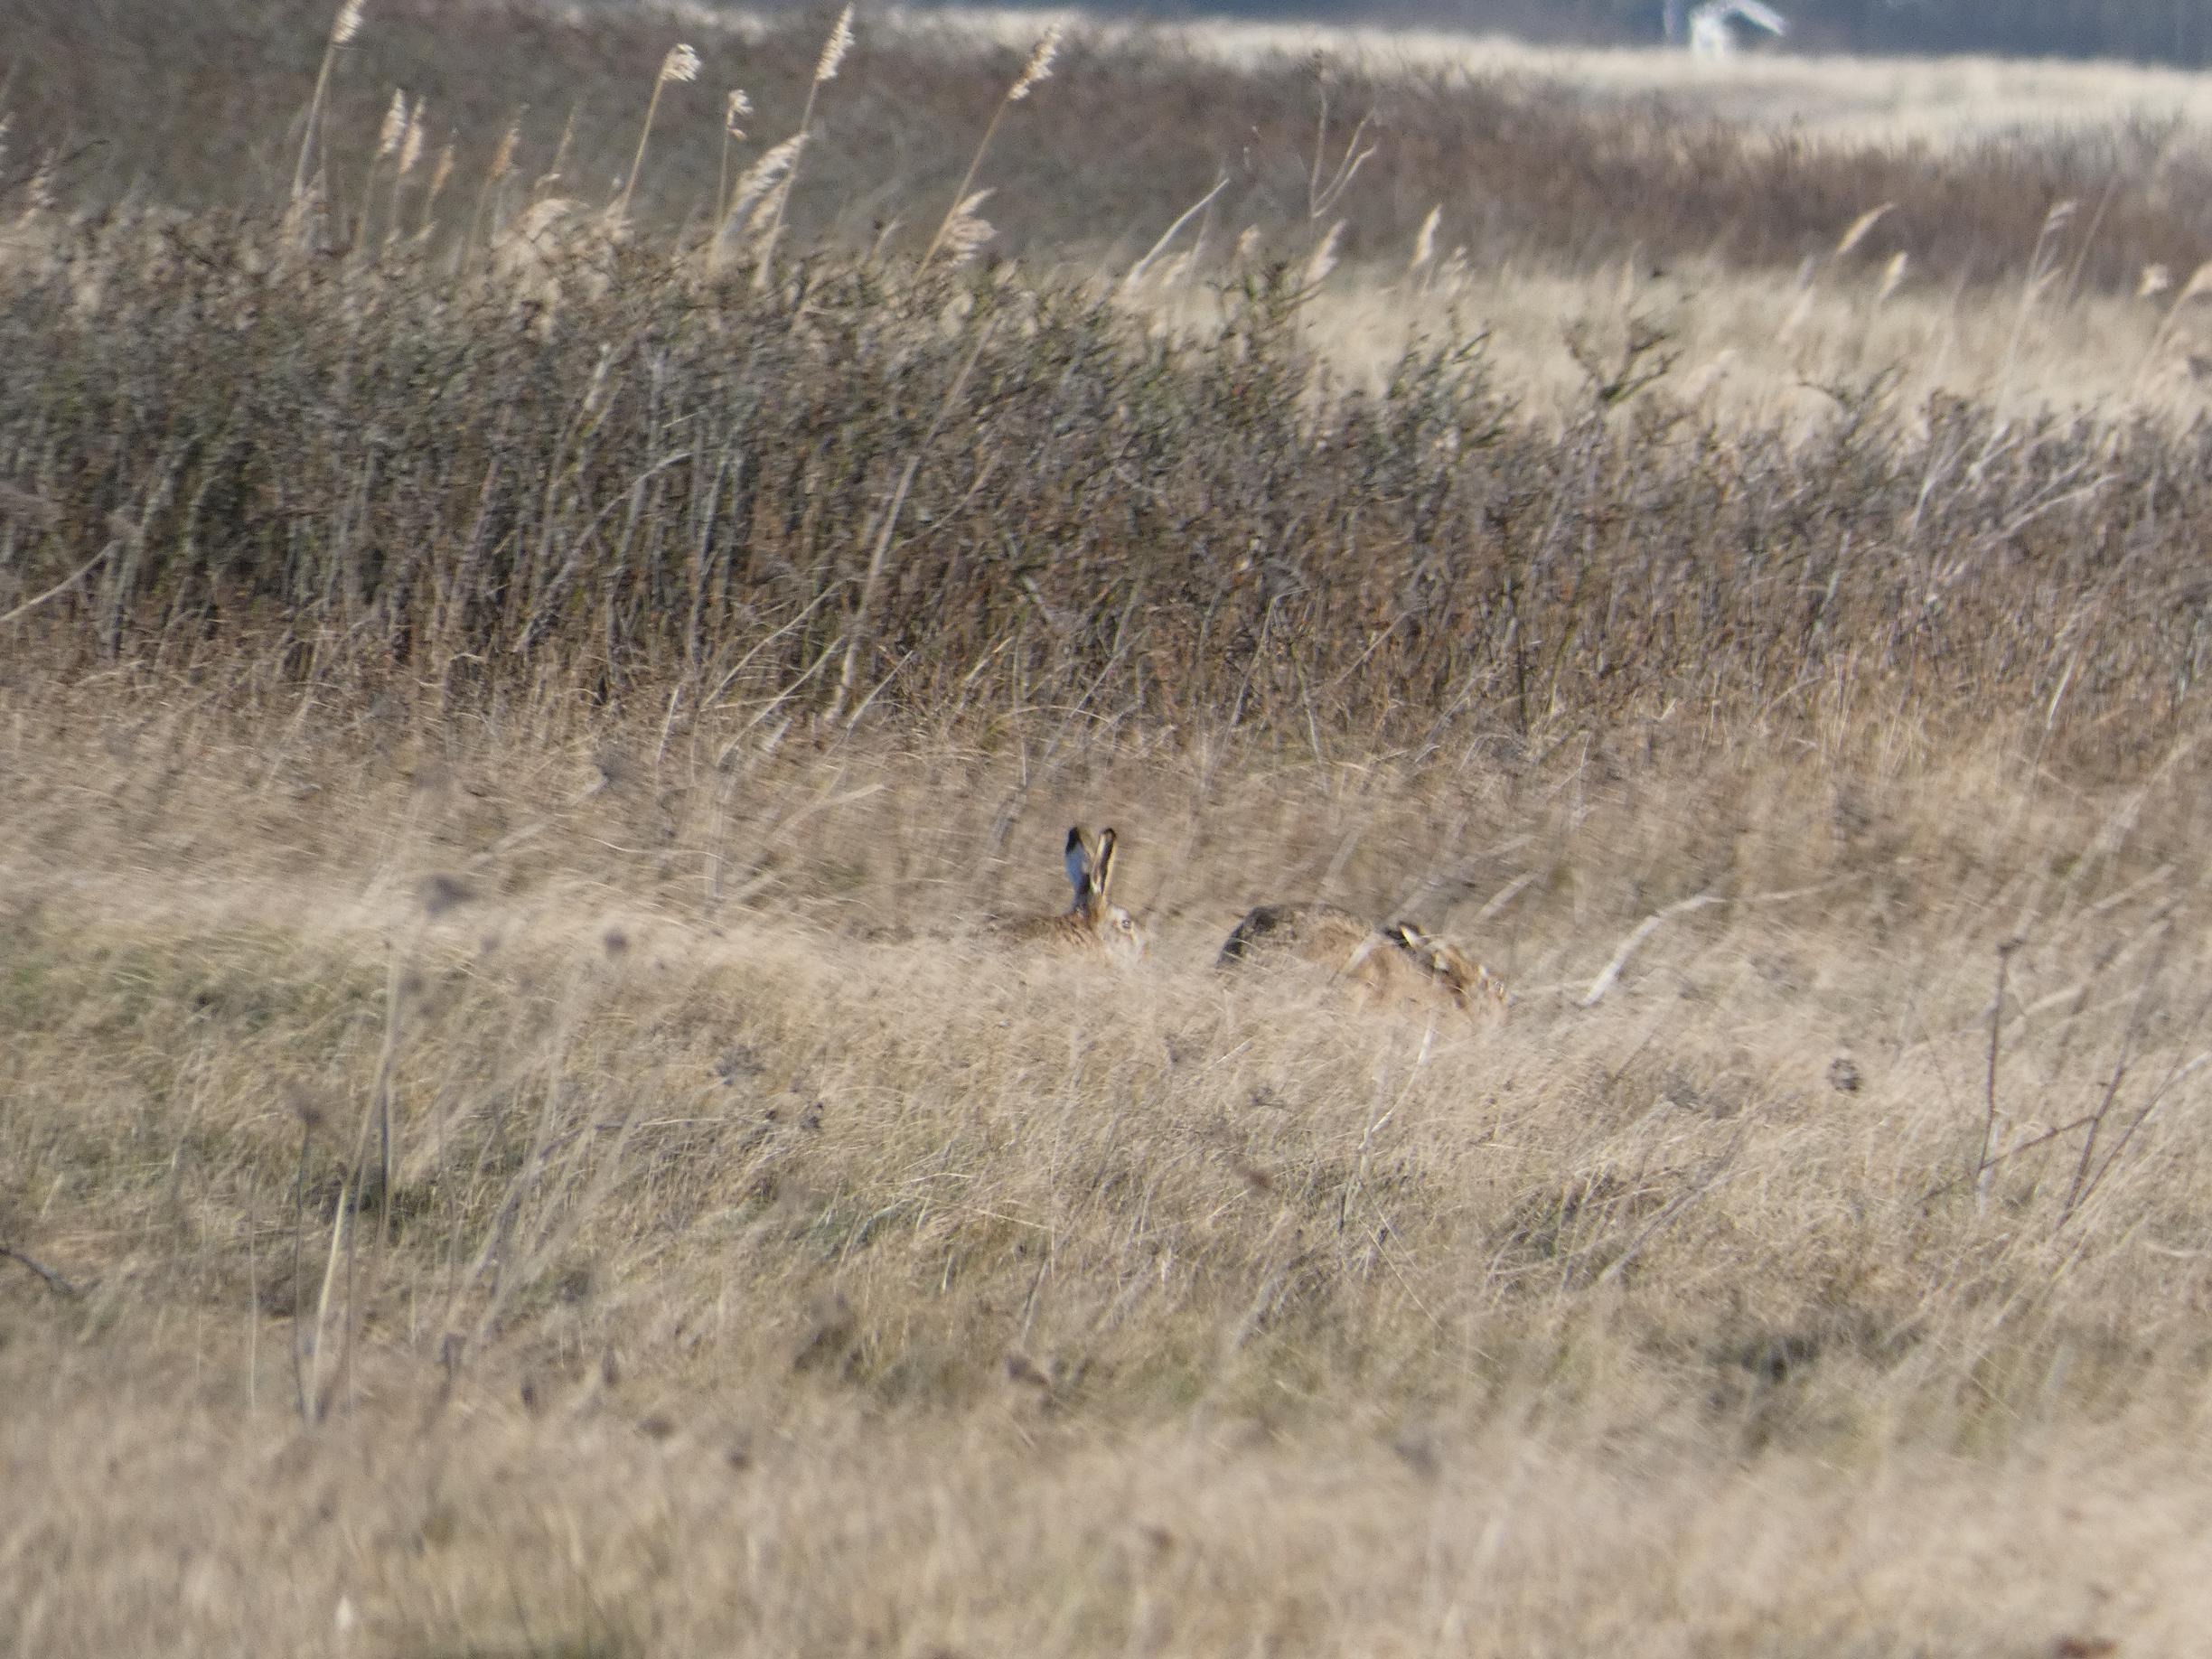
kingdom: Animalia
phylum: Chordata
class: Mammalia
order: Lagomorpha
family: Leporidae
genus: Lepus
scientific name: Lepus europaeus
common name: Hare
